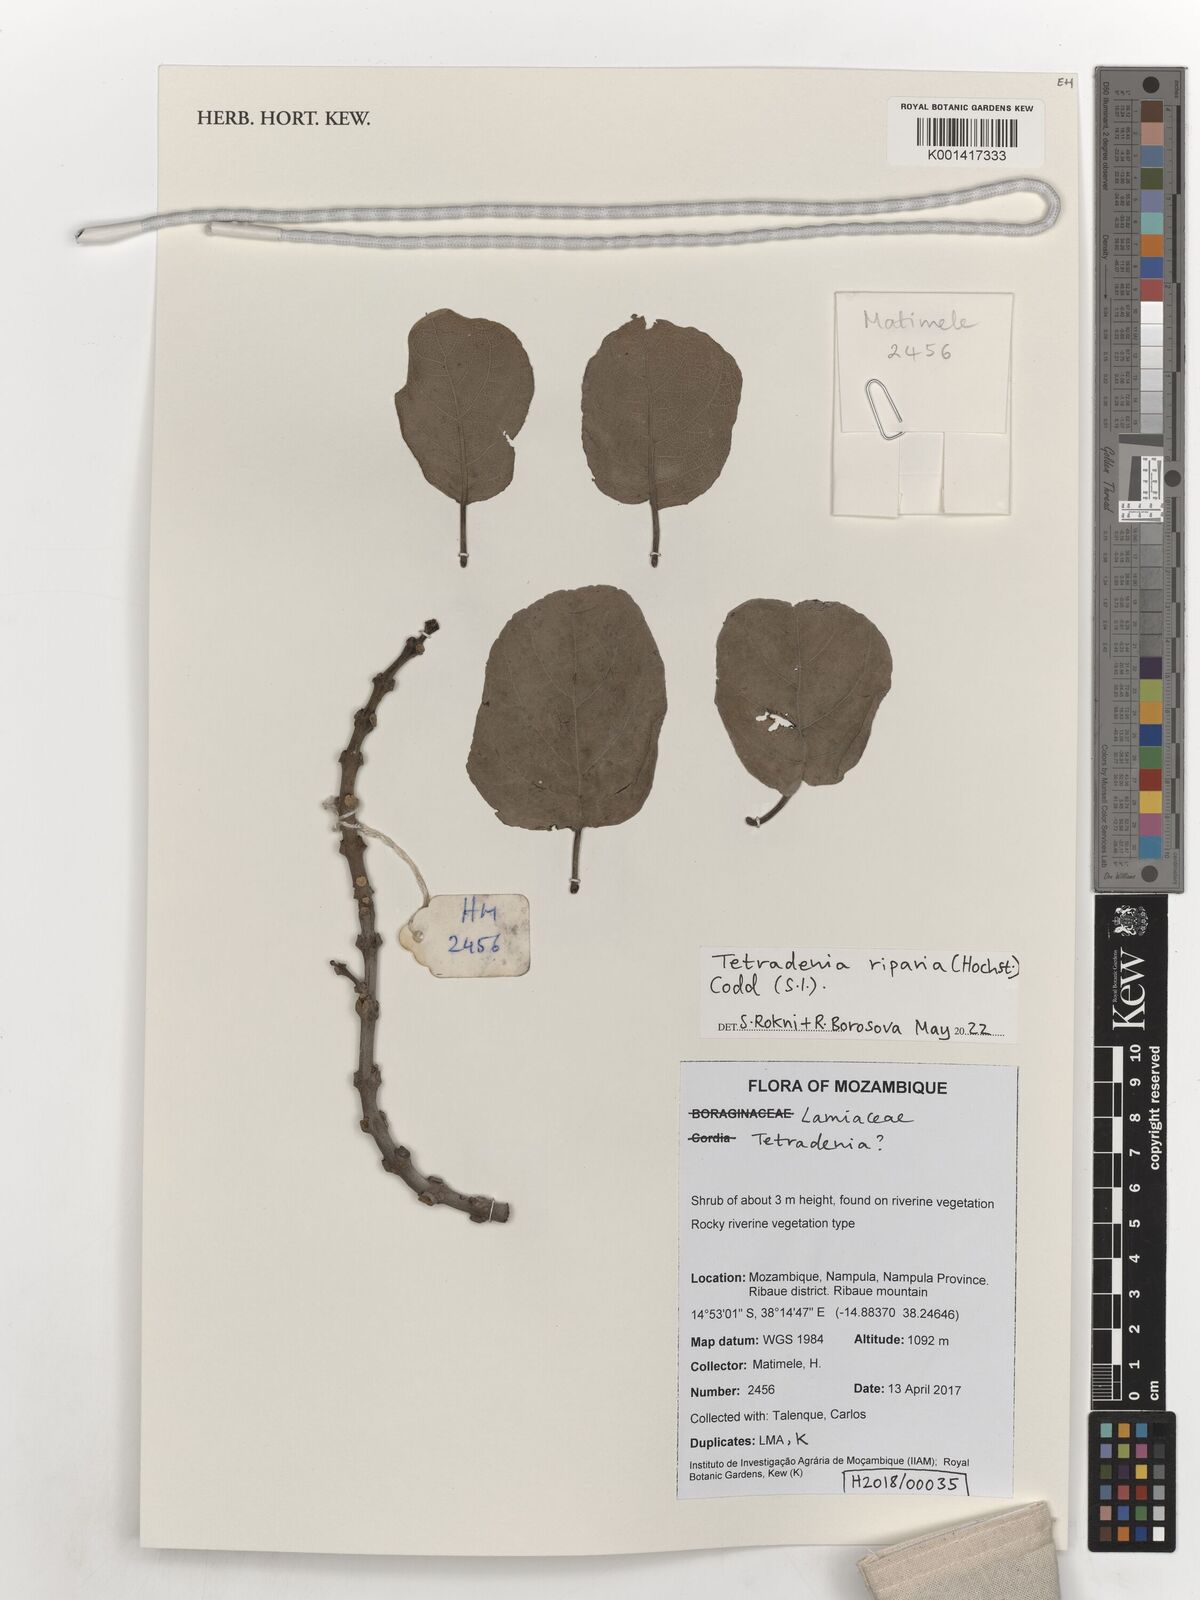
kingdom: Plantae
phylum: Tracheophyta
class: Magnoliopsida
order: Lamiales
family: Lamiaceae
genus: Tetradenia
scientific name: Tetradenia riparia
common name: Gingerbush
